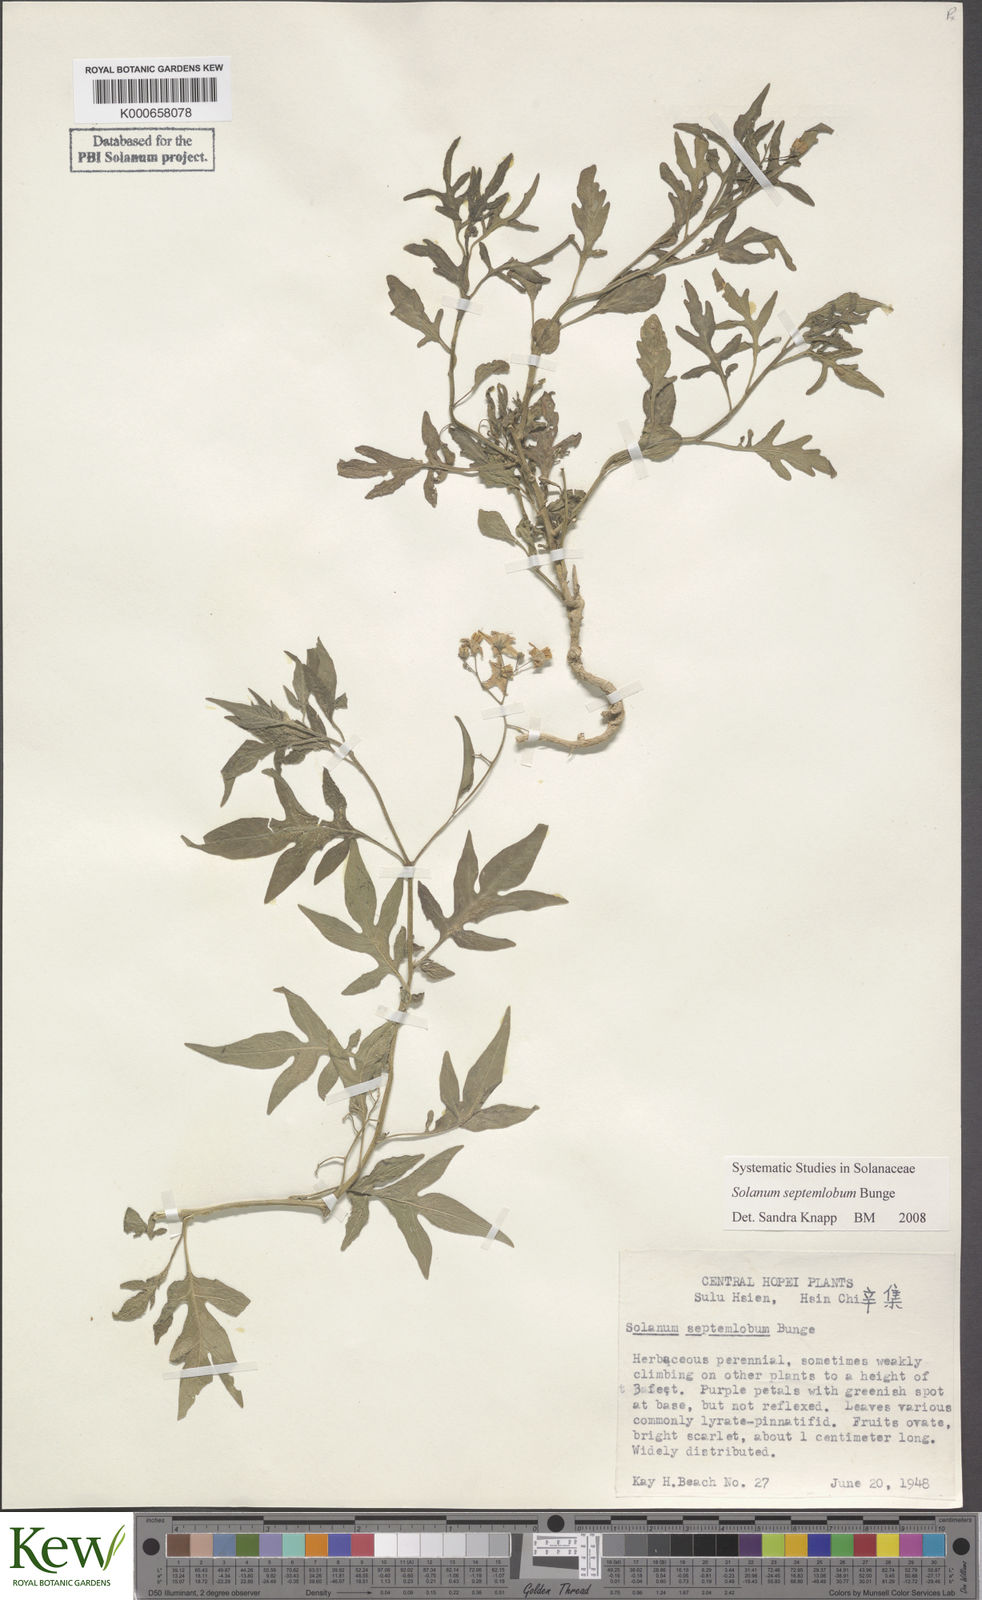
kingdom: Plantae
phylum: Tracheophyta
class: Magnoliopsida
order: Solanales
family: Solanaceae
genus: Solanum
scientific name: Solanum septemlobum
